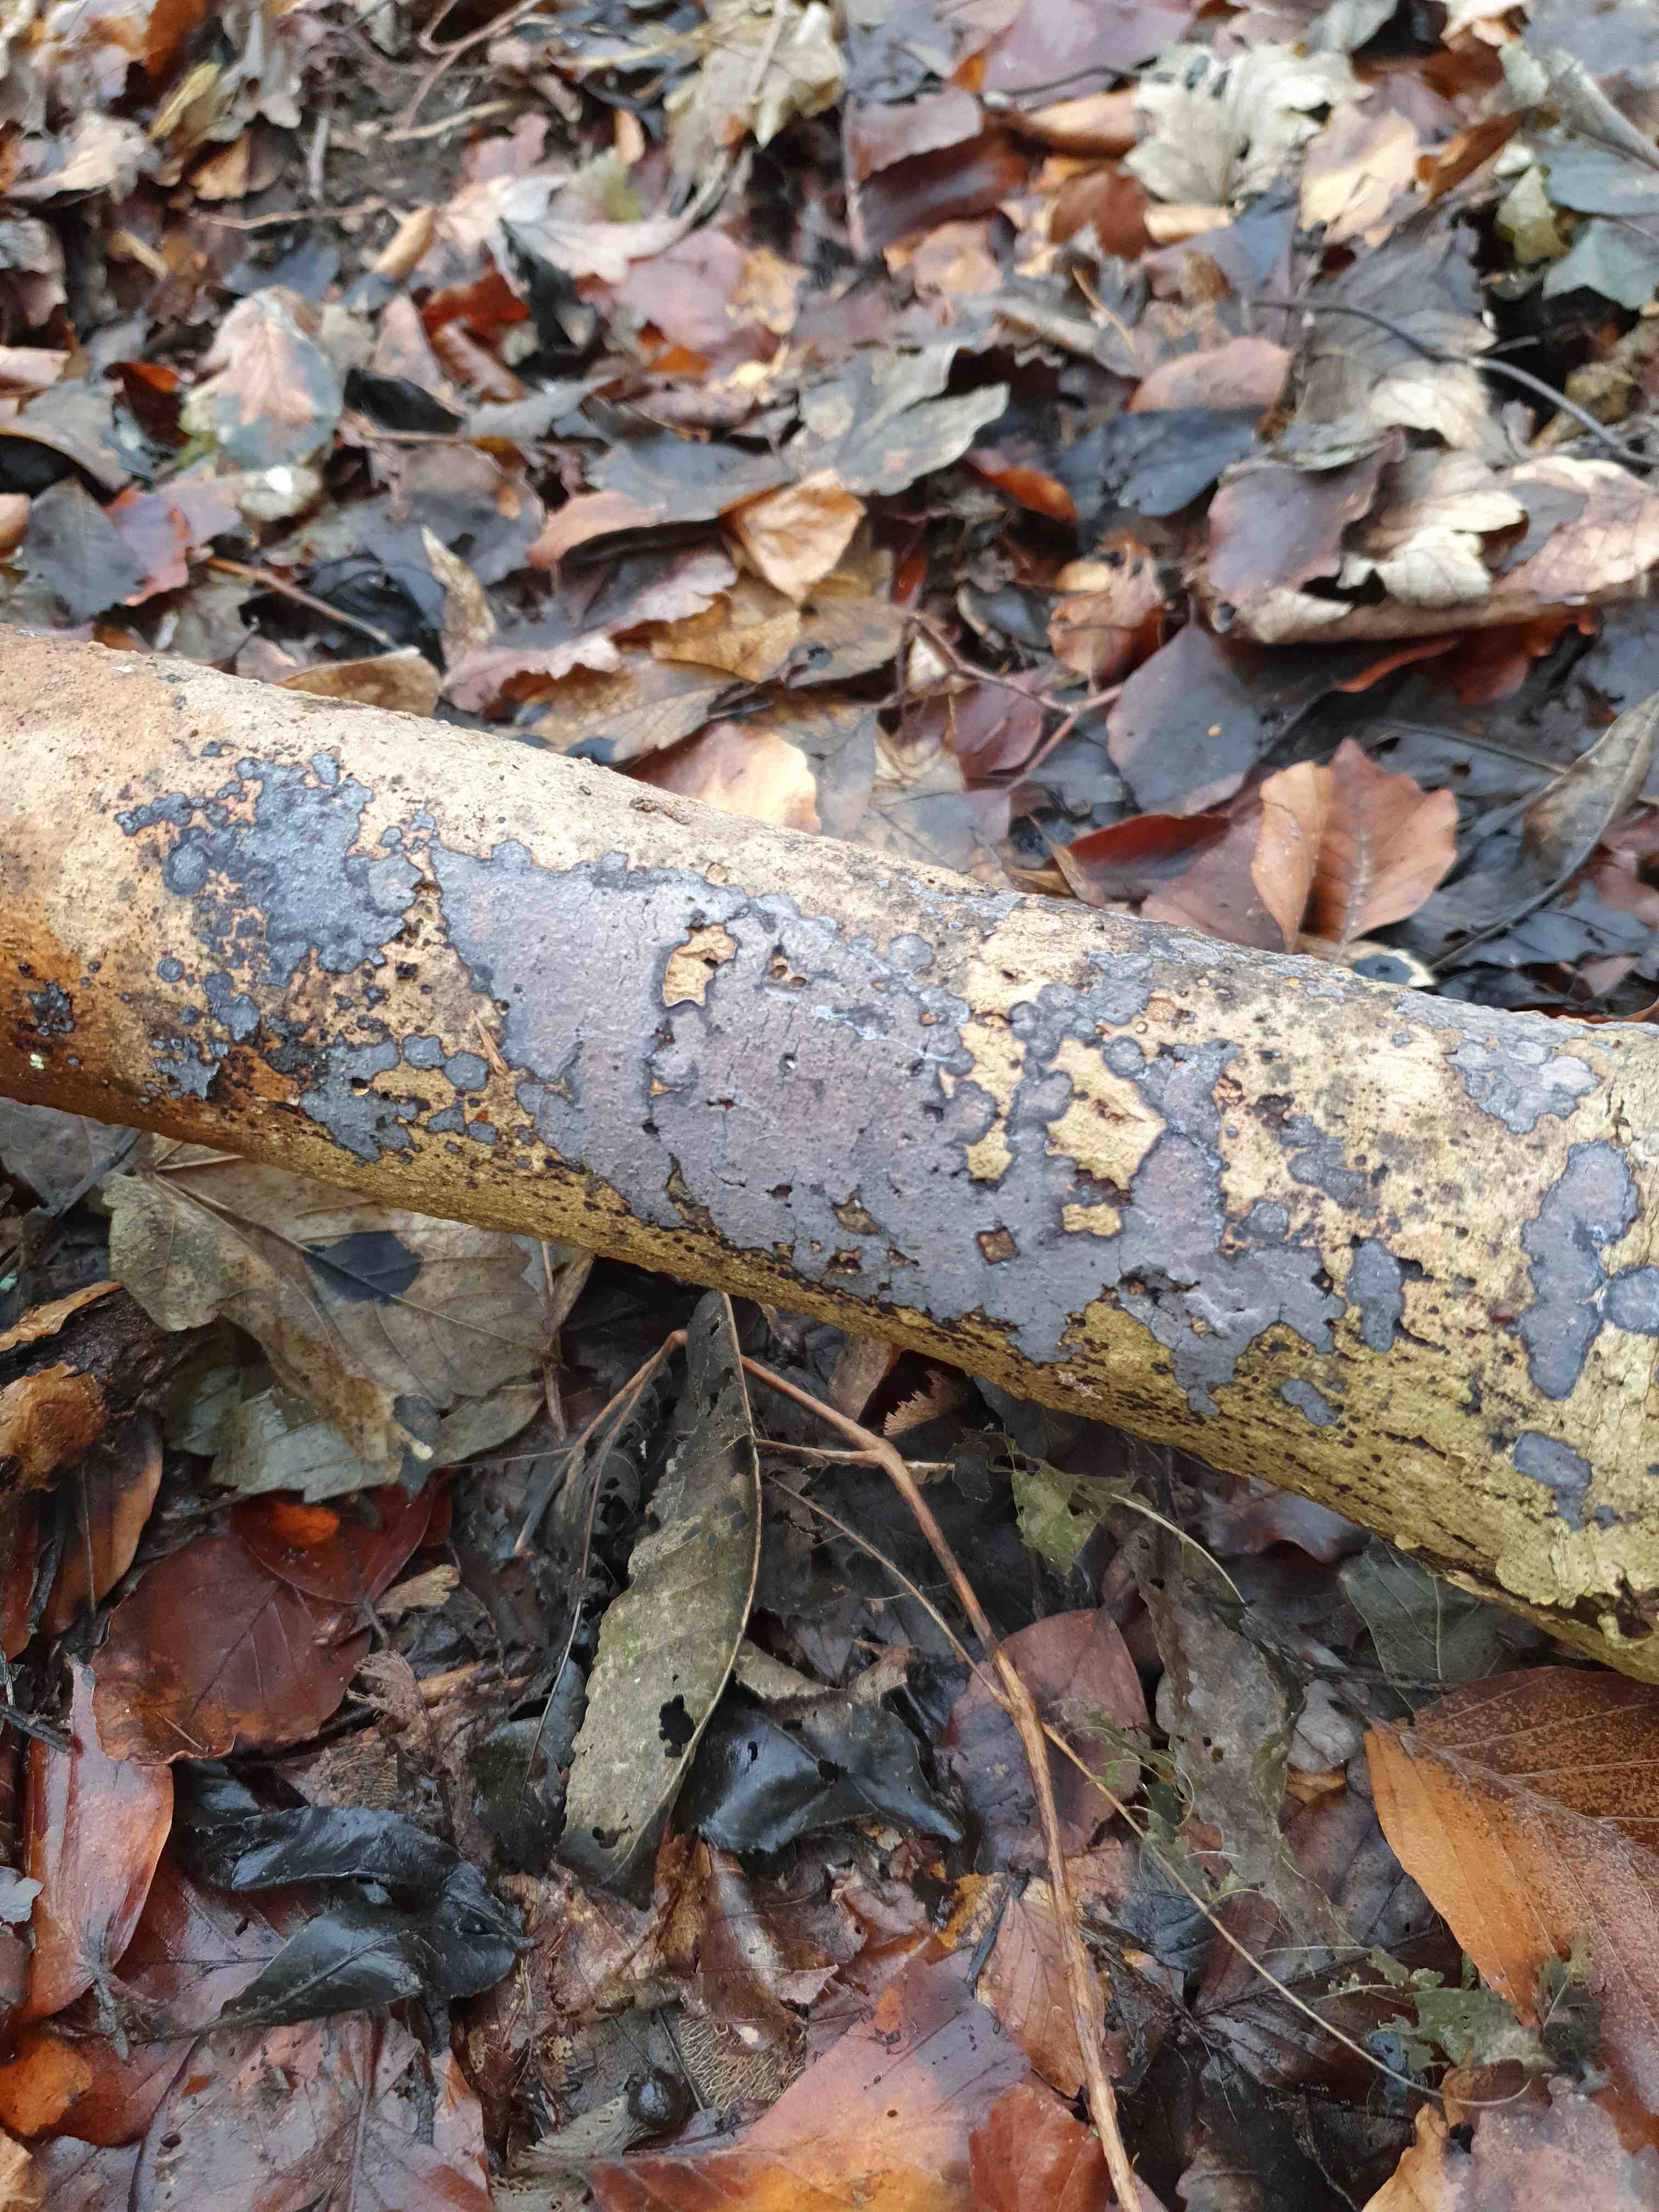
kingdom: Fungi
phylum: Basidiomycota
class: Agaricomycetes
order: Russulales
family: Peniophoraceae
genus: Peniophora
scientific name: Peniophora limitata
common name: mørkrandet voksskind
